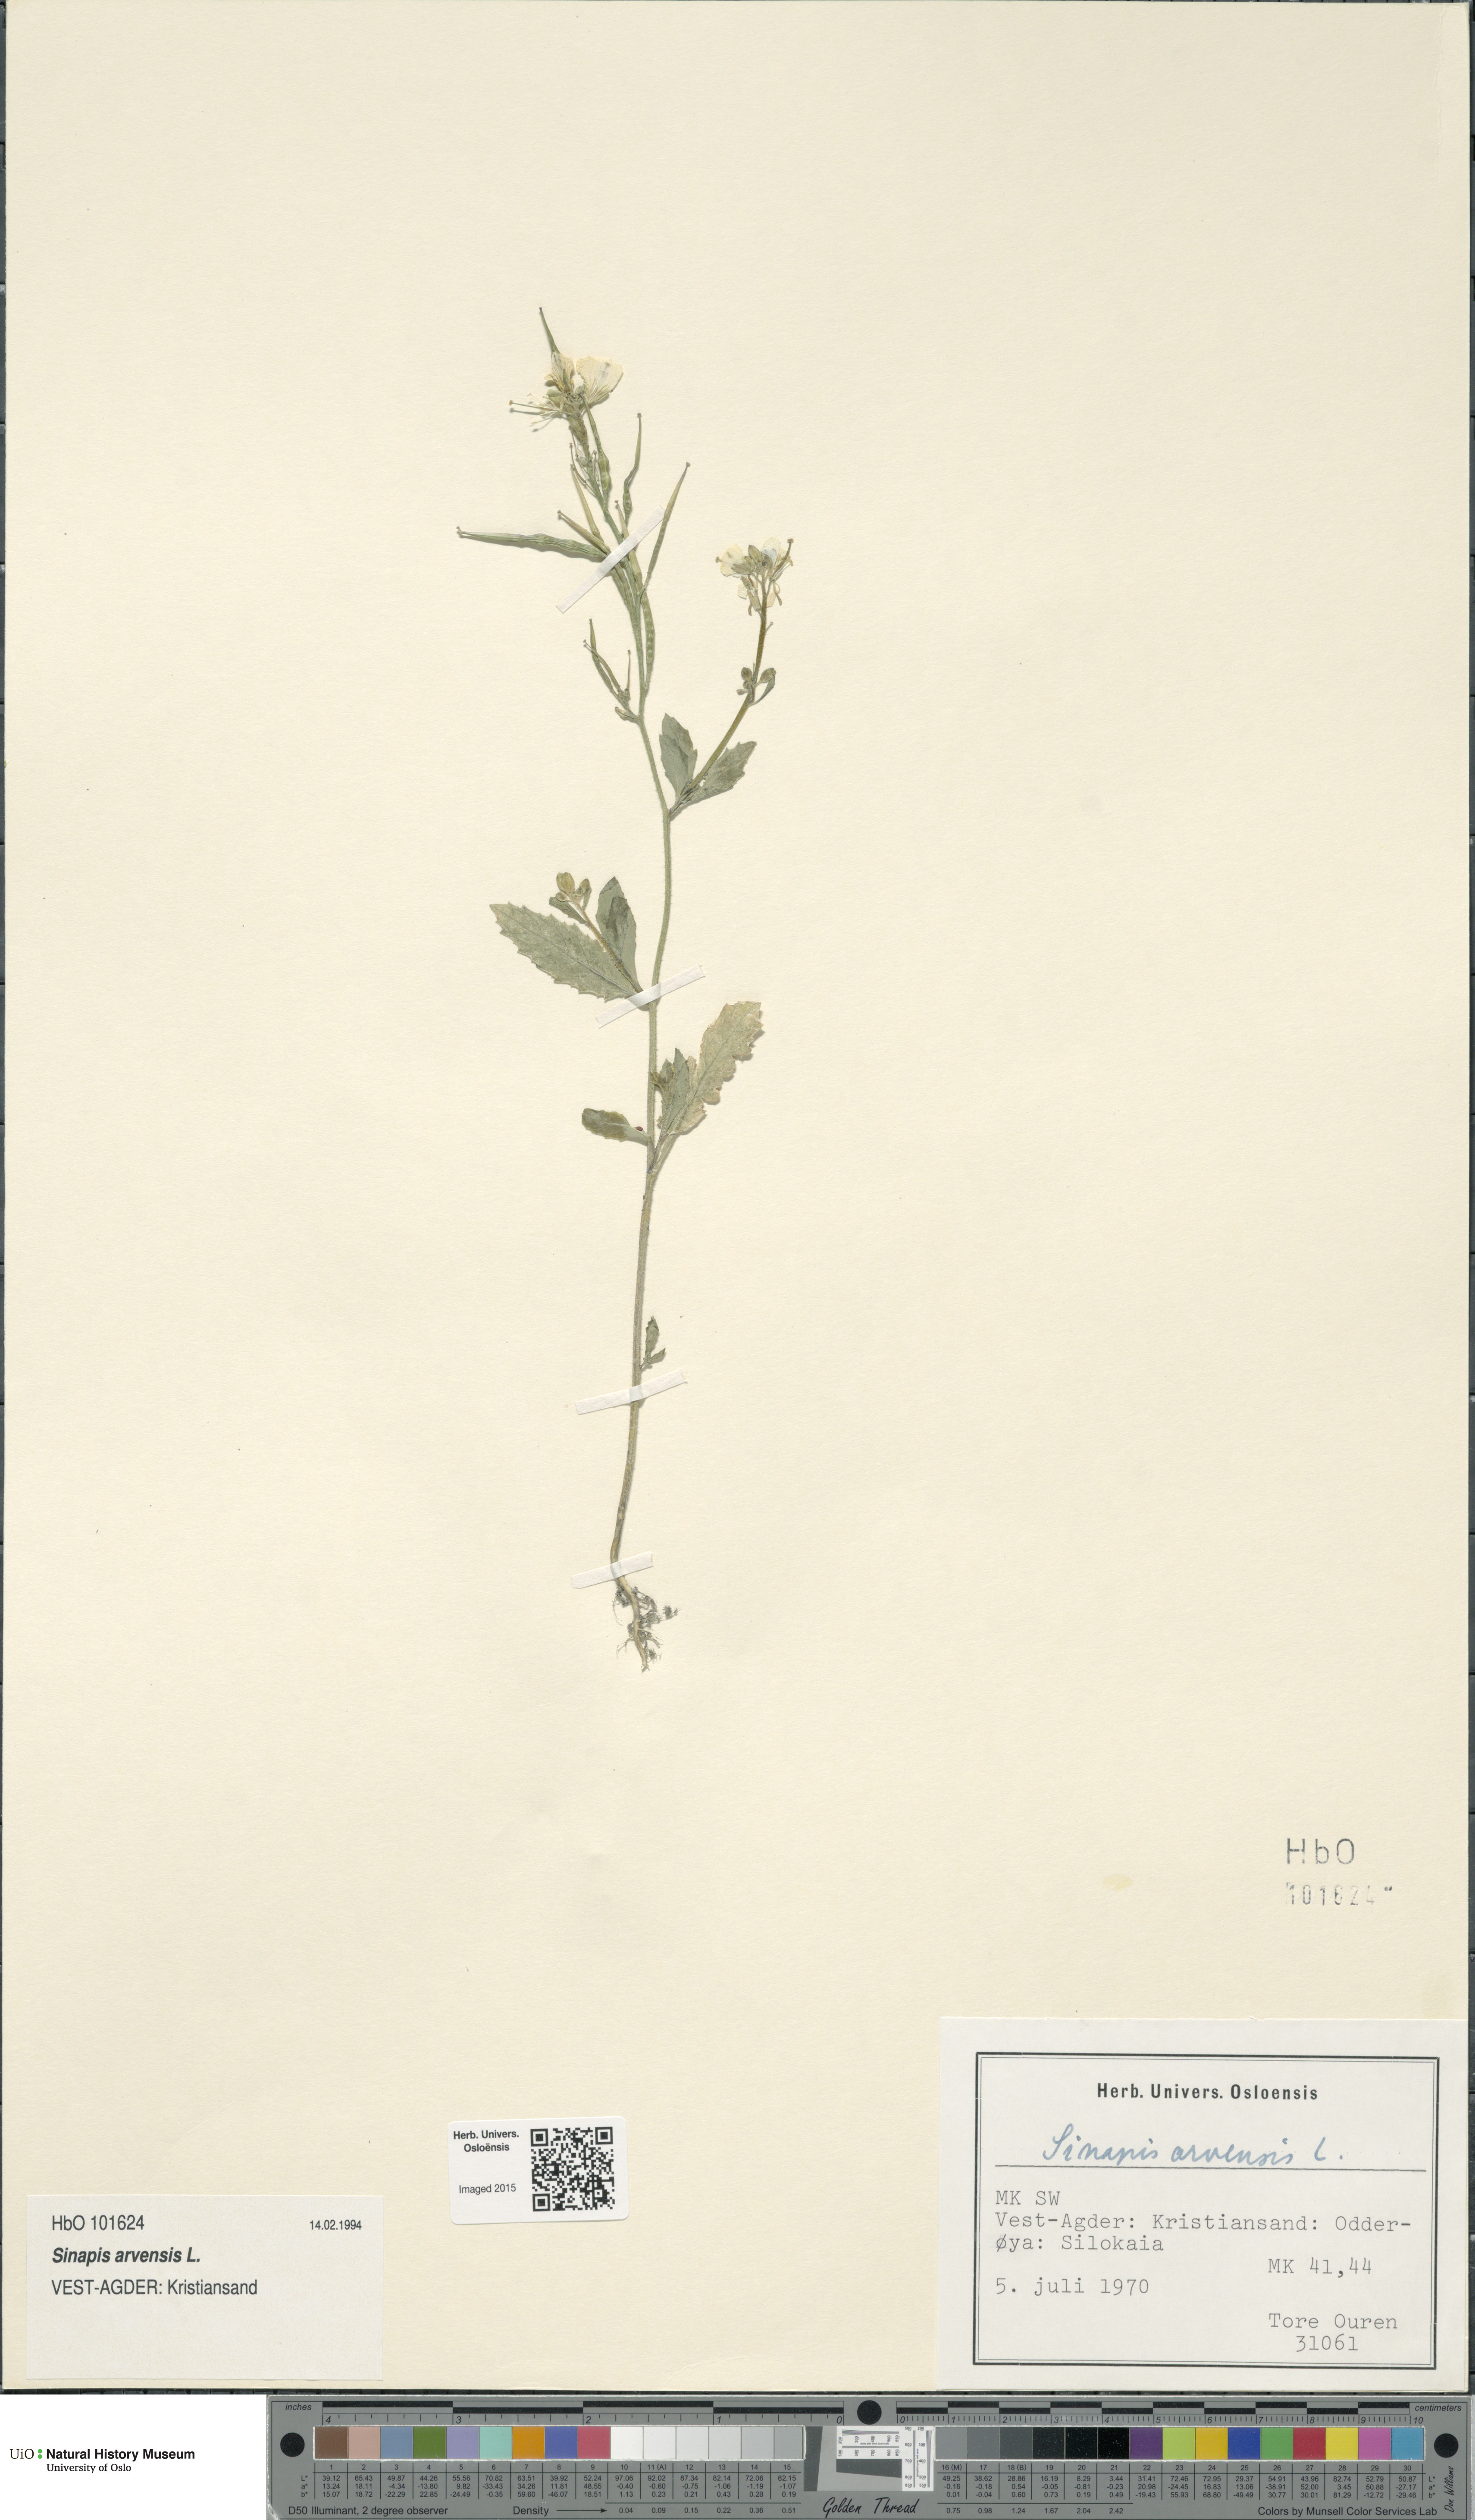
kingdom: Plantae
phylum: Tracheophyta
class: Magnoliopsida
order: Brassicales
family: Brassicaceae
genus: Sinapis
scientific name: Sinapis arvensis
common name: Charlock
